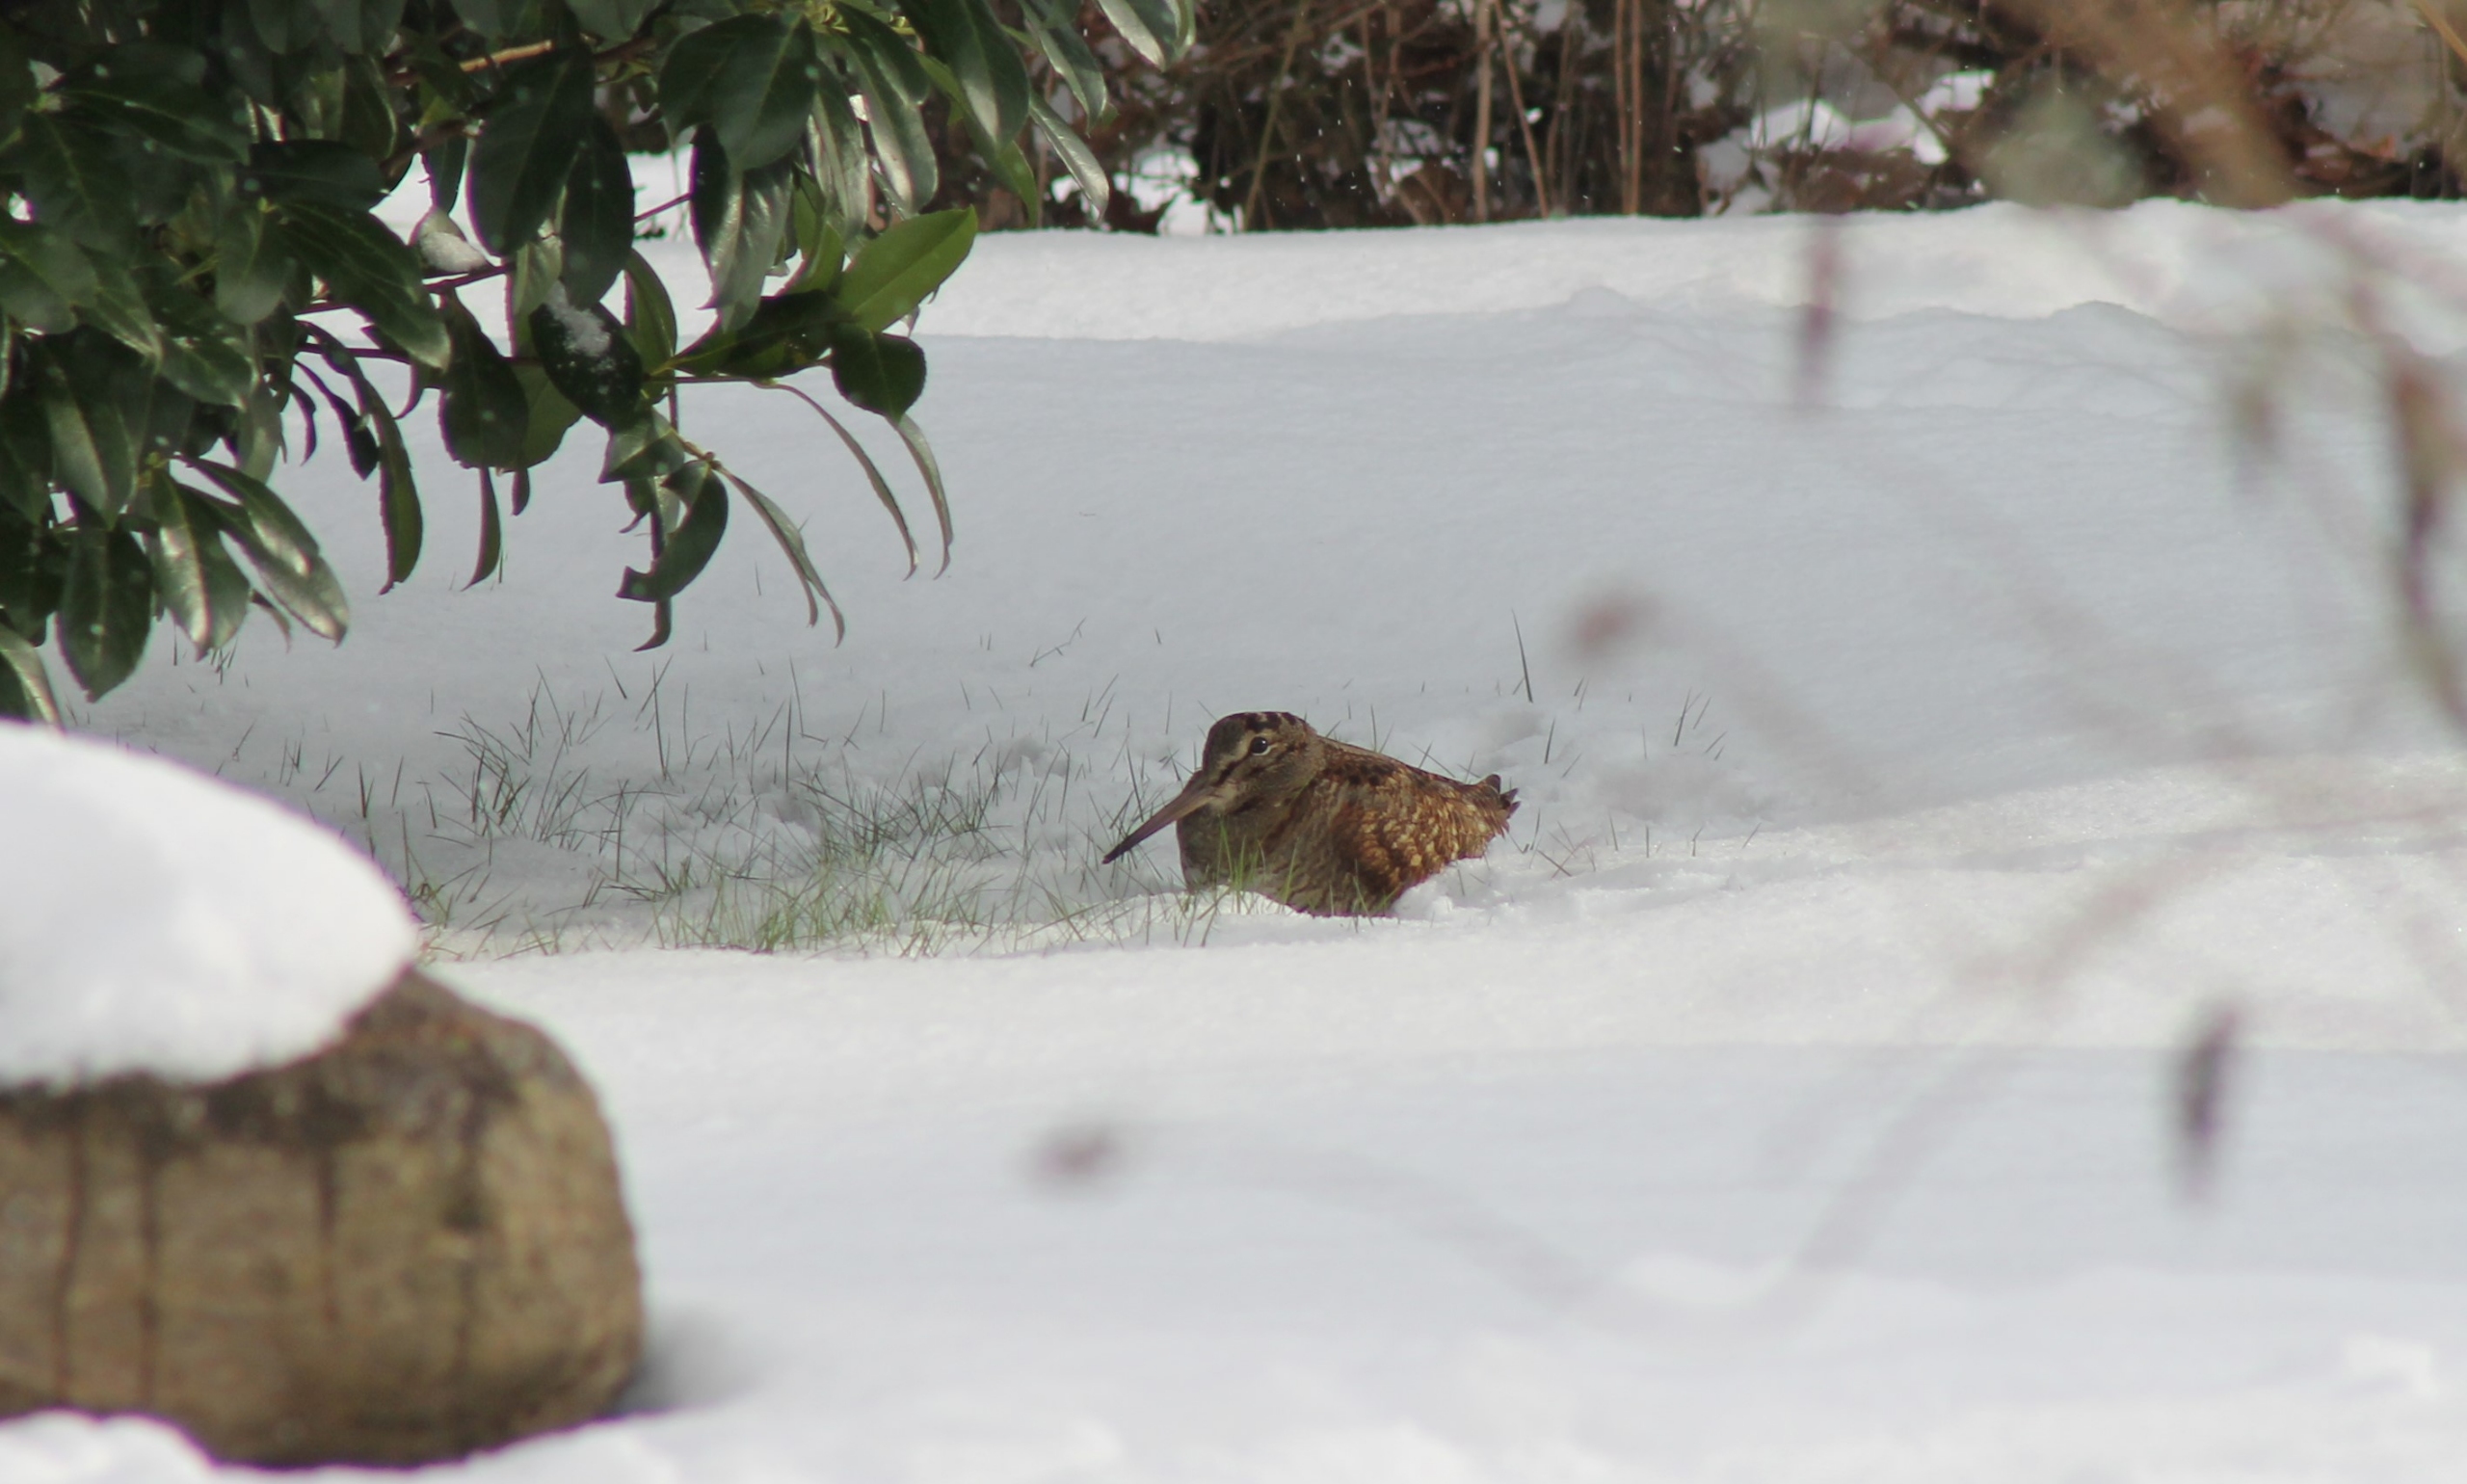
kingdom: Animalia
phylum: Chordata
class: Aves
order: Charadriiformes
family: Scolopacidae
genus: Scolopax
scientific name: Scolopax rusticola
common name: Skovsneppe
